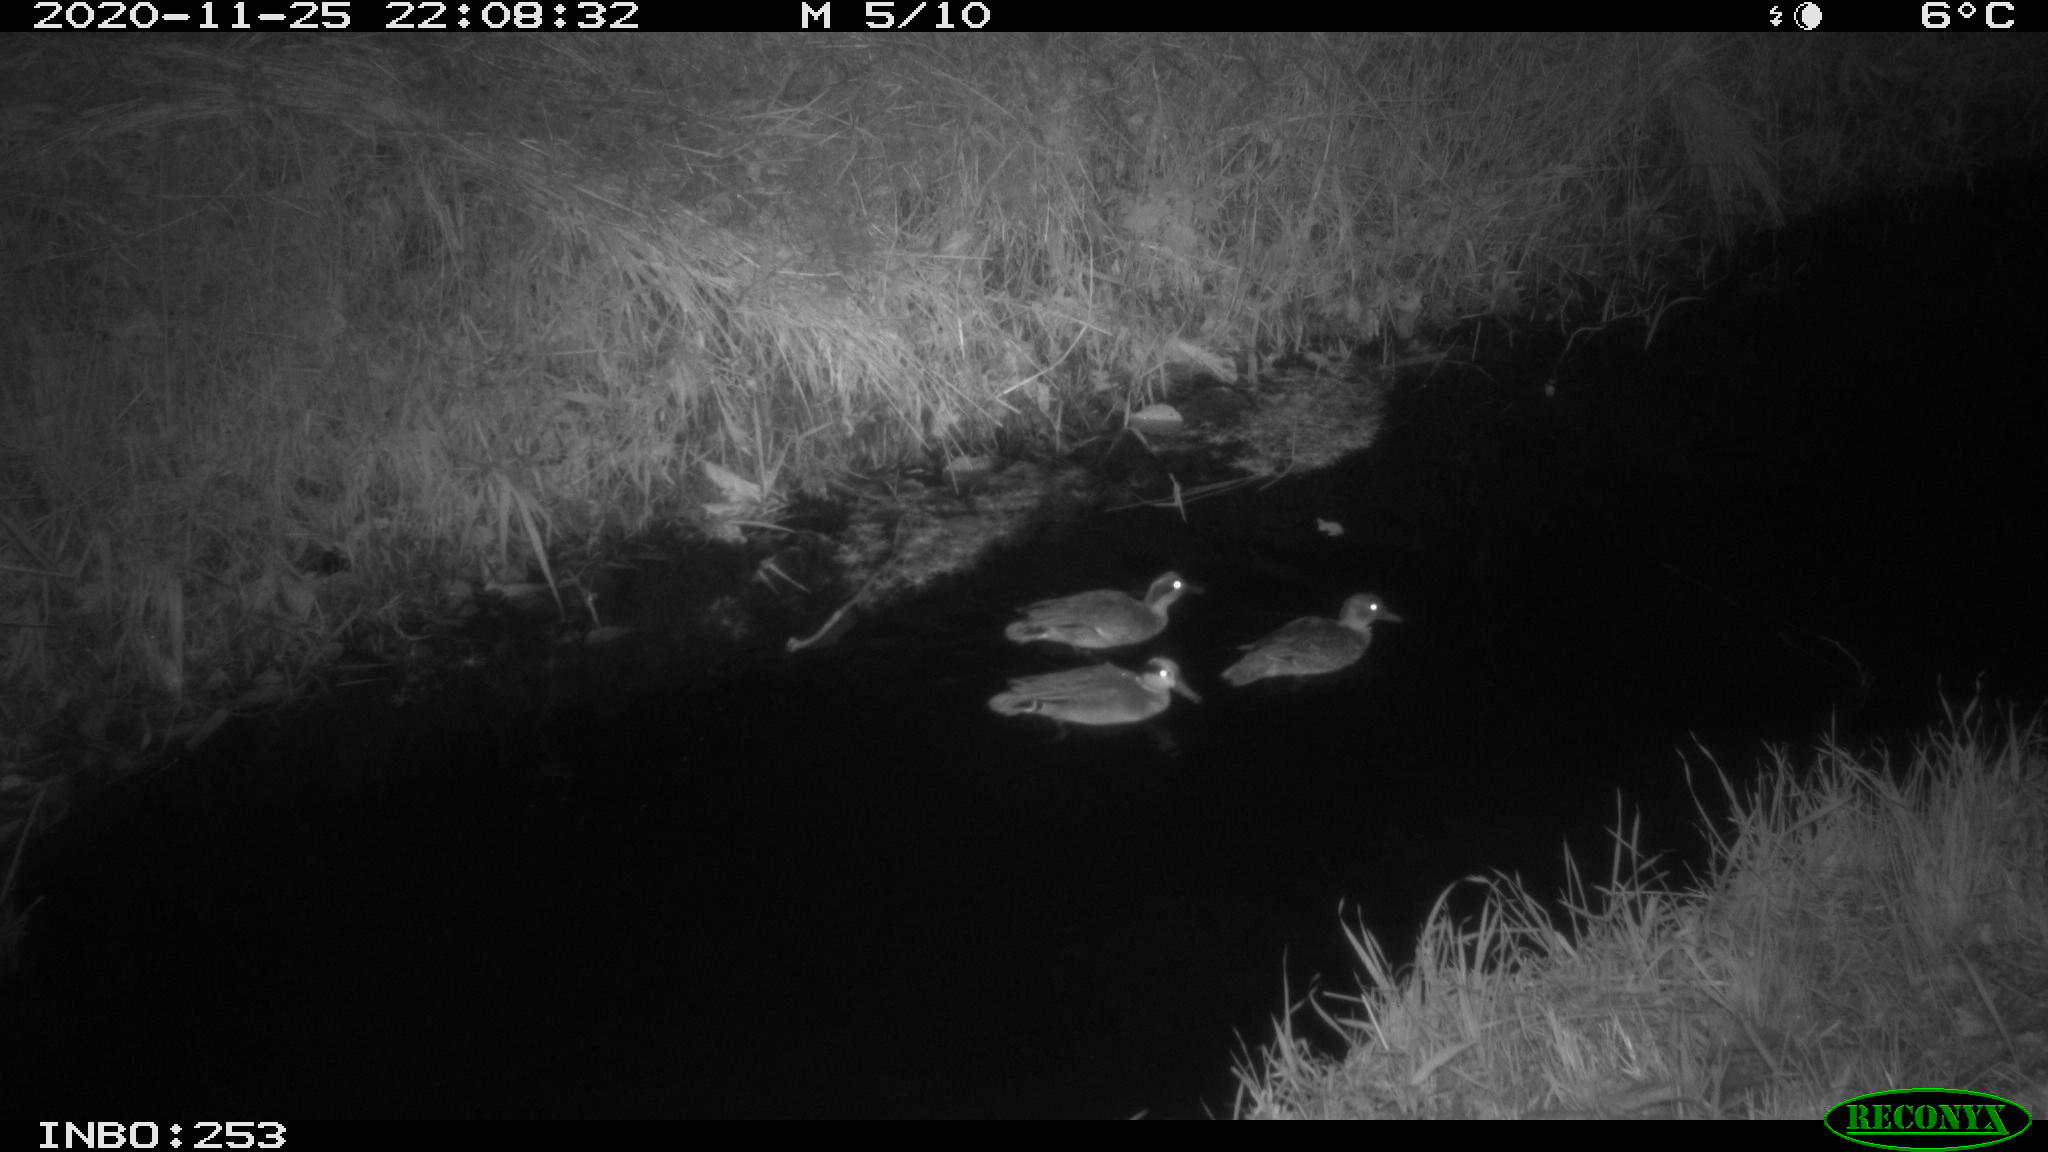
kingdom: Animalia
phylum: Chordata
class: Aves
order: Anseriformes
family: Anatidae
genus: Anas
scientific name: Anas crecca
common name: Eurasian teal
